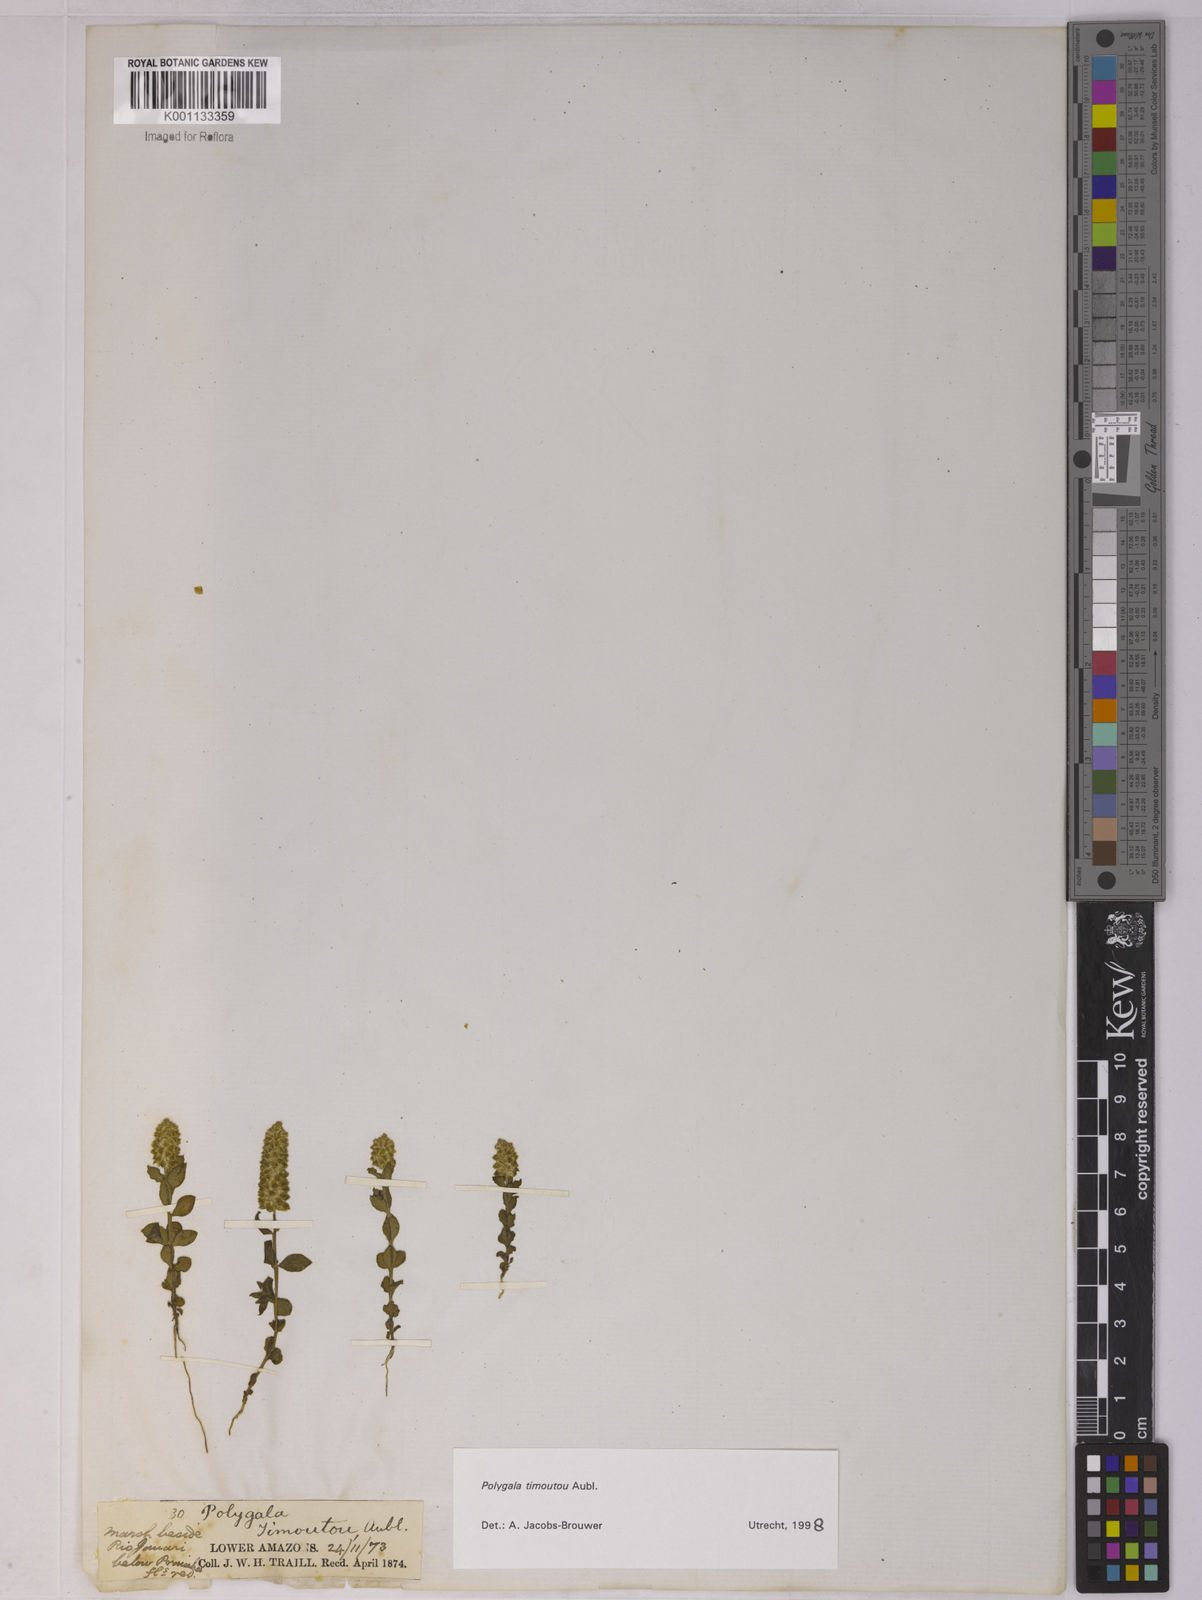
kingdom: Plantae
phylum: Tracheophyta
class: Magnoliopsida
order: Fabales
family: Polygalaceae
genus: Polygala
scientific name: Polygala timoutoides
